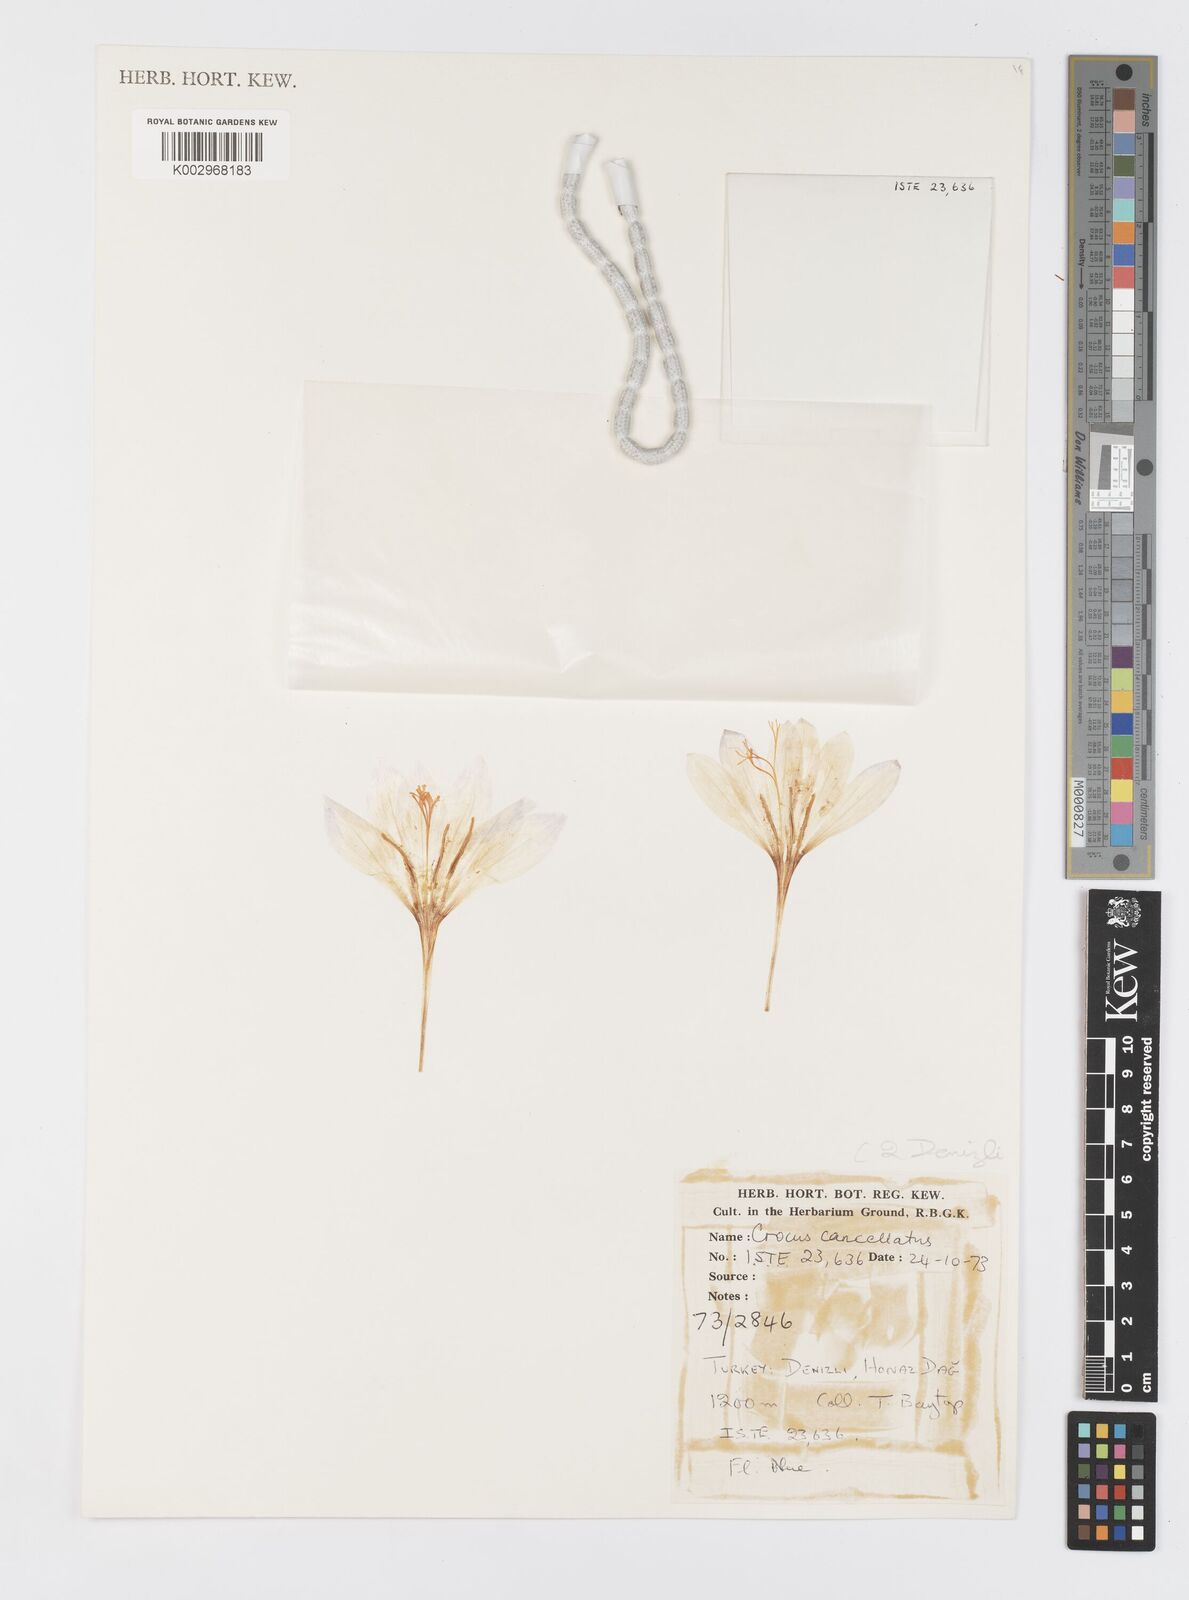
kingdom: Plantae
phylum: Tracheophyta
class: Liliopsida
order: Asparagales
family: Iridaceae
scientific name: Iridaceae
